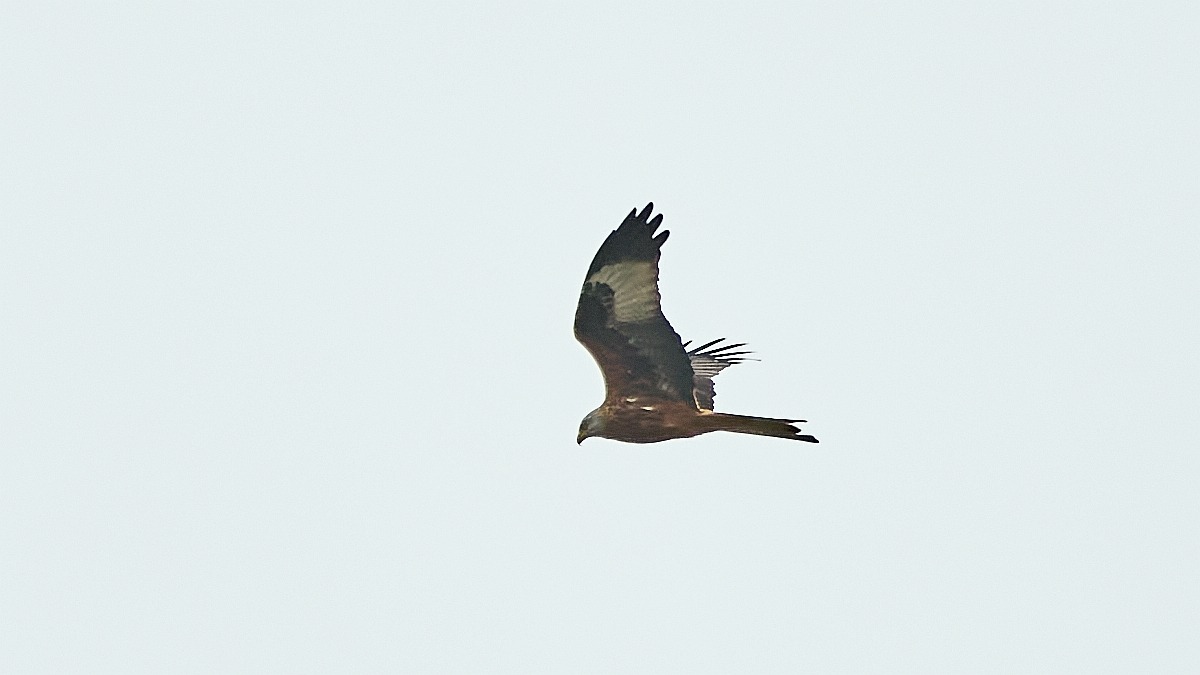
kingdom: Animalia
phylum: Chordata
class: Aves
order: Accipitriformes
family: Accipitridae
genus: Milvus
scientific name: Milvus milvus
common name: Rød glente
